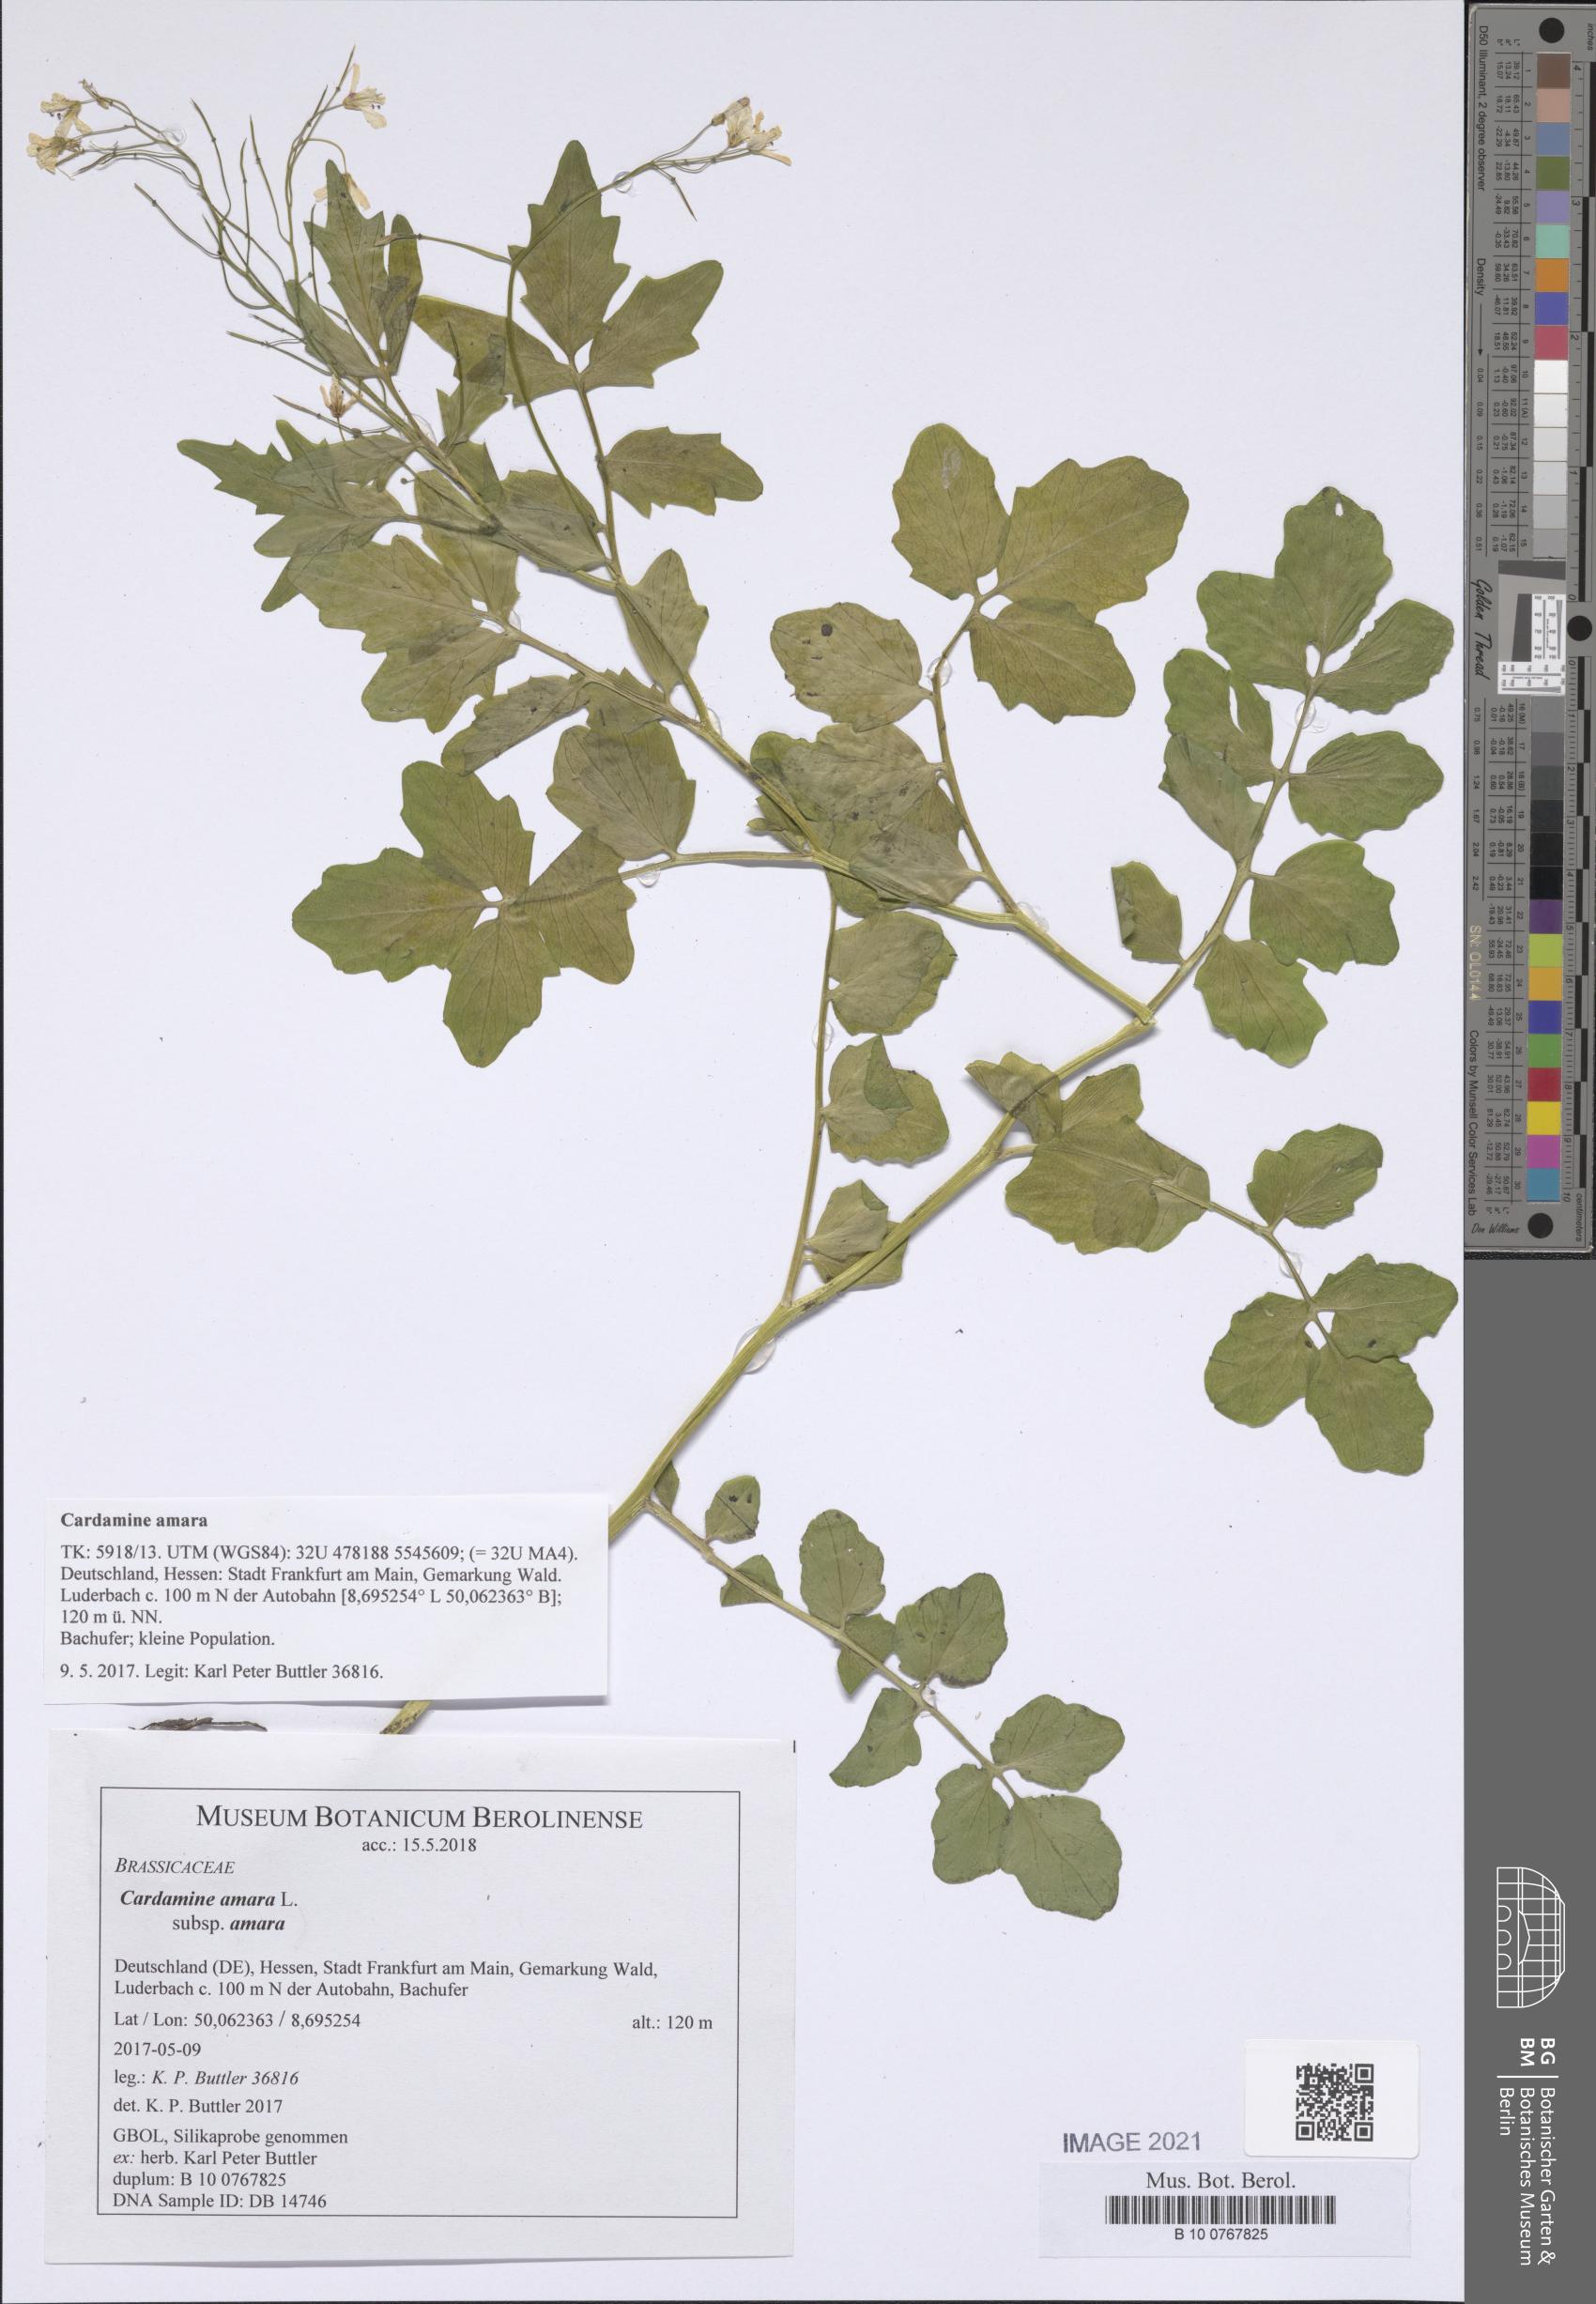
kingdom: Plantae
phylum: Tracheophyta
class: Magnoliopsida
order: Brassicales
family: Brassicaceae
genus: Cardamine
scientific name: Cardamine amara
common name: Large bitter-cress
